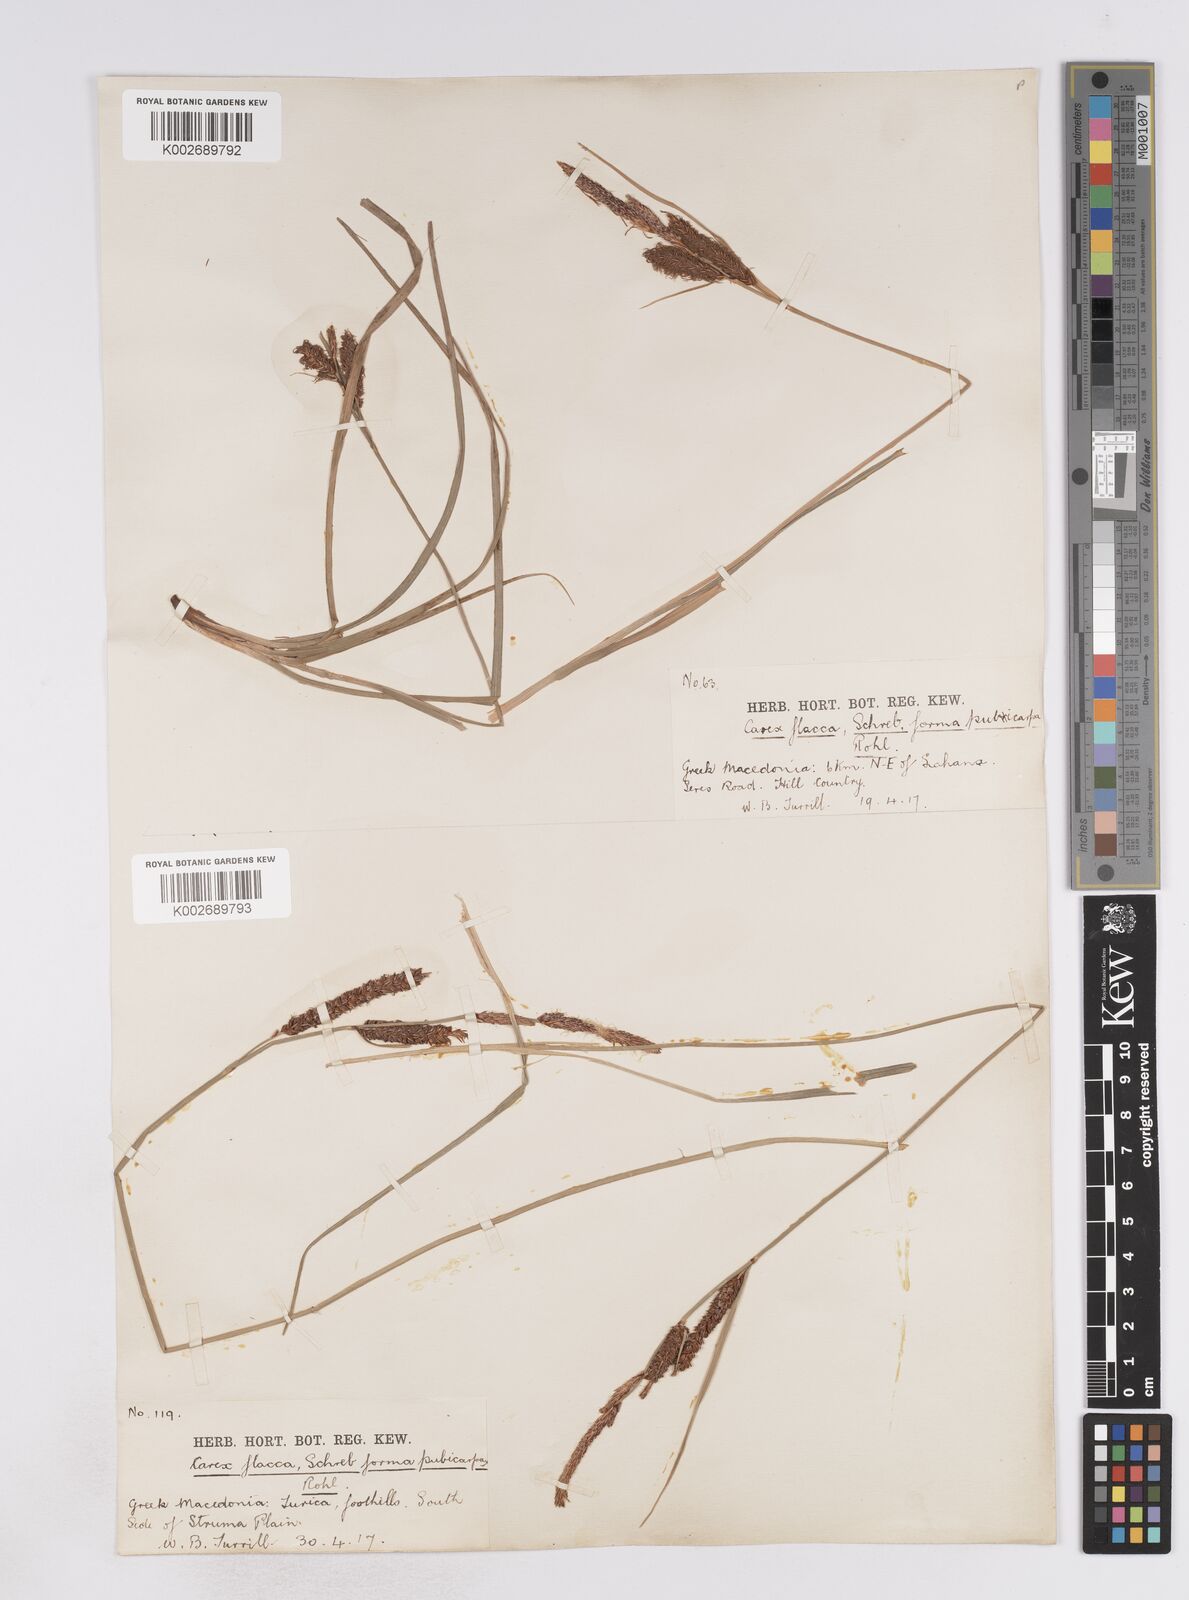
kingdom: Plantae
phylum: Tracheophyta
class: Liliopsida
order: Poales
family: Cyperaceae
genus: Carex
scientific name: Carex flacca
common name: Glaucous sedge
